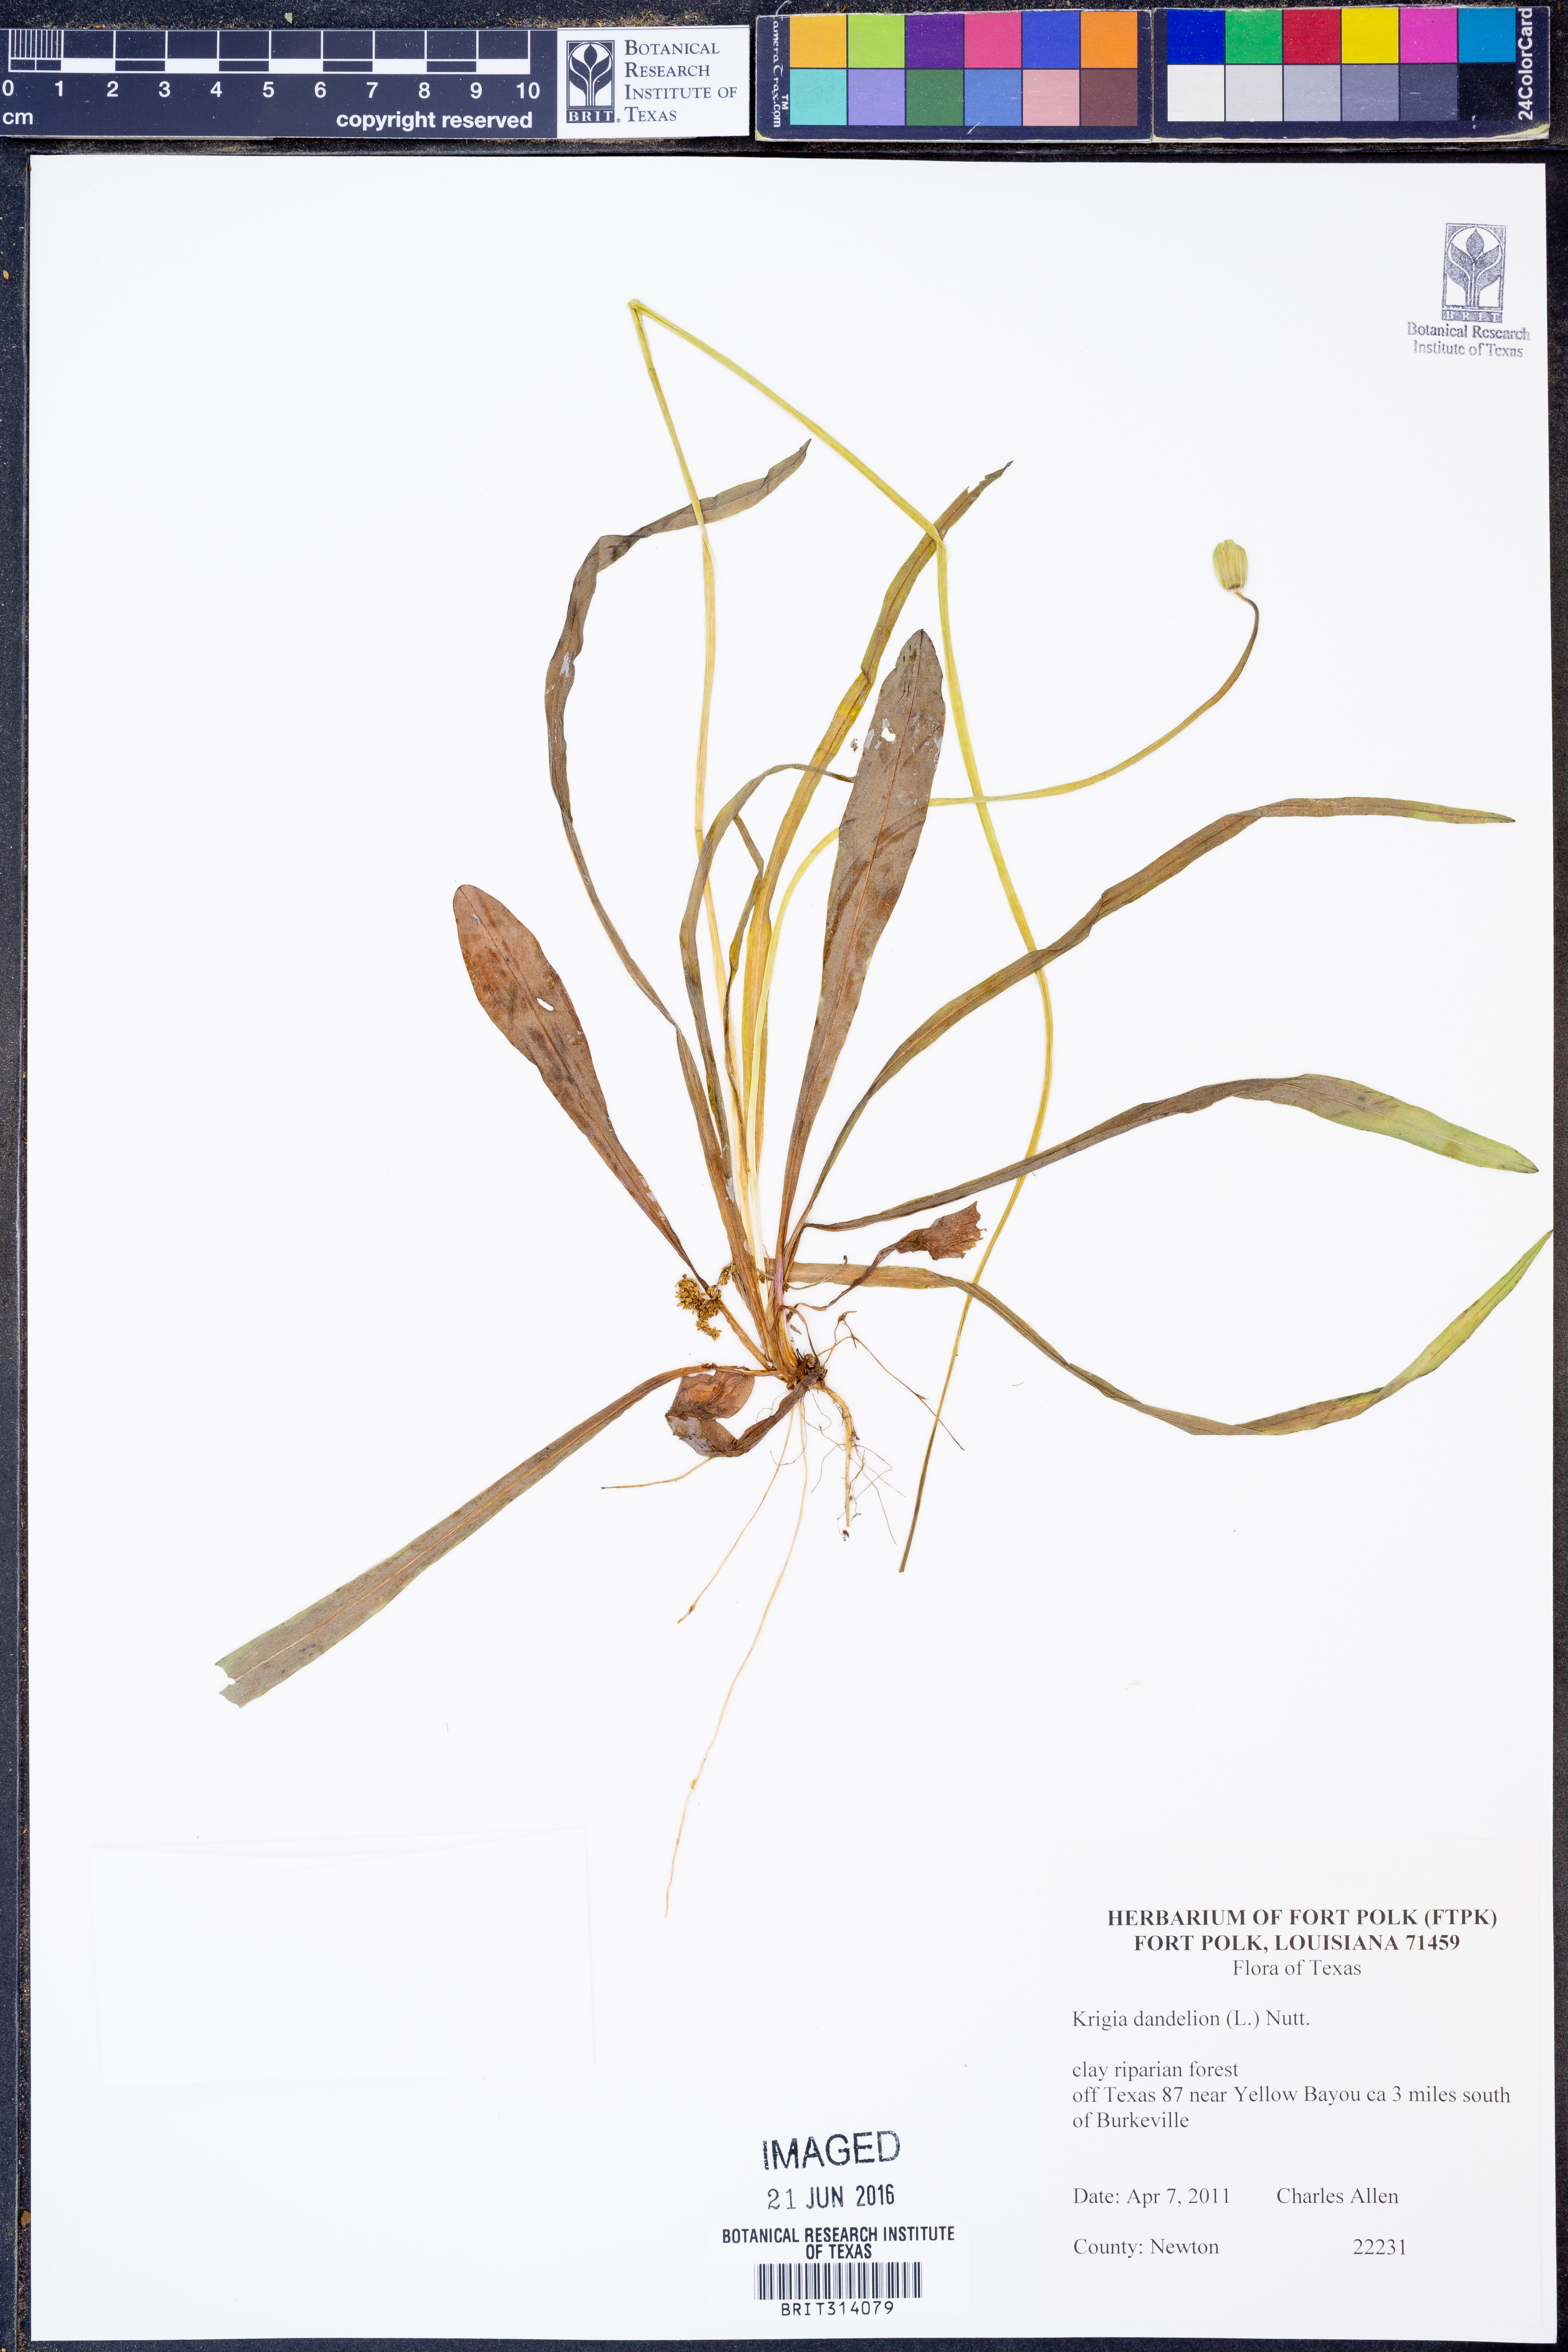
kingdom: Plantae
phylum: Tracheophyta
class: Magnoliopsida
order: Asterales
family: Asteraceae
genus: Krigia
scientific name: Krigia dandelion
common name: Colonial dwarf-dandelion
